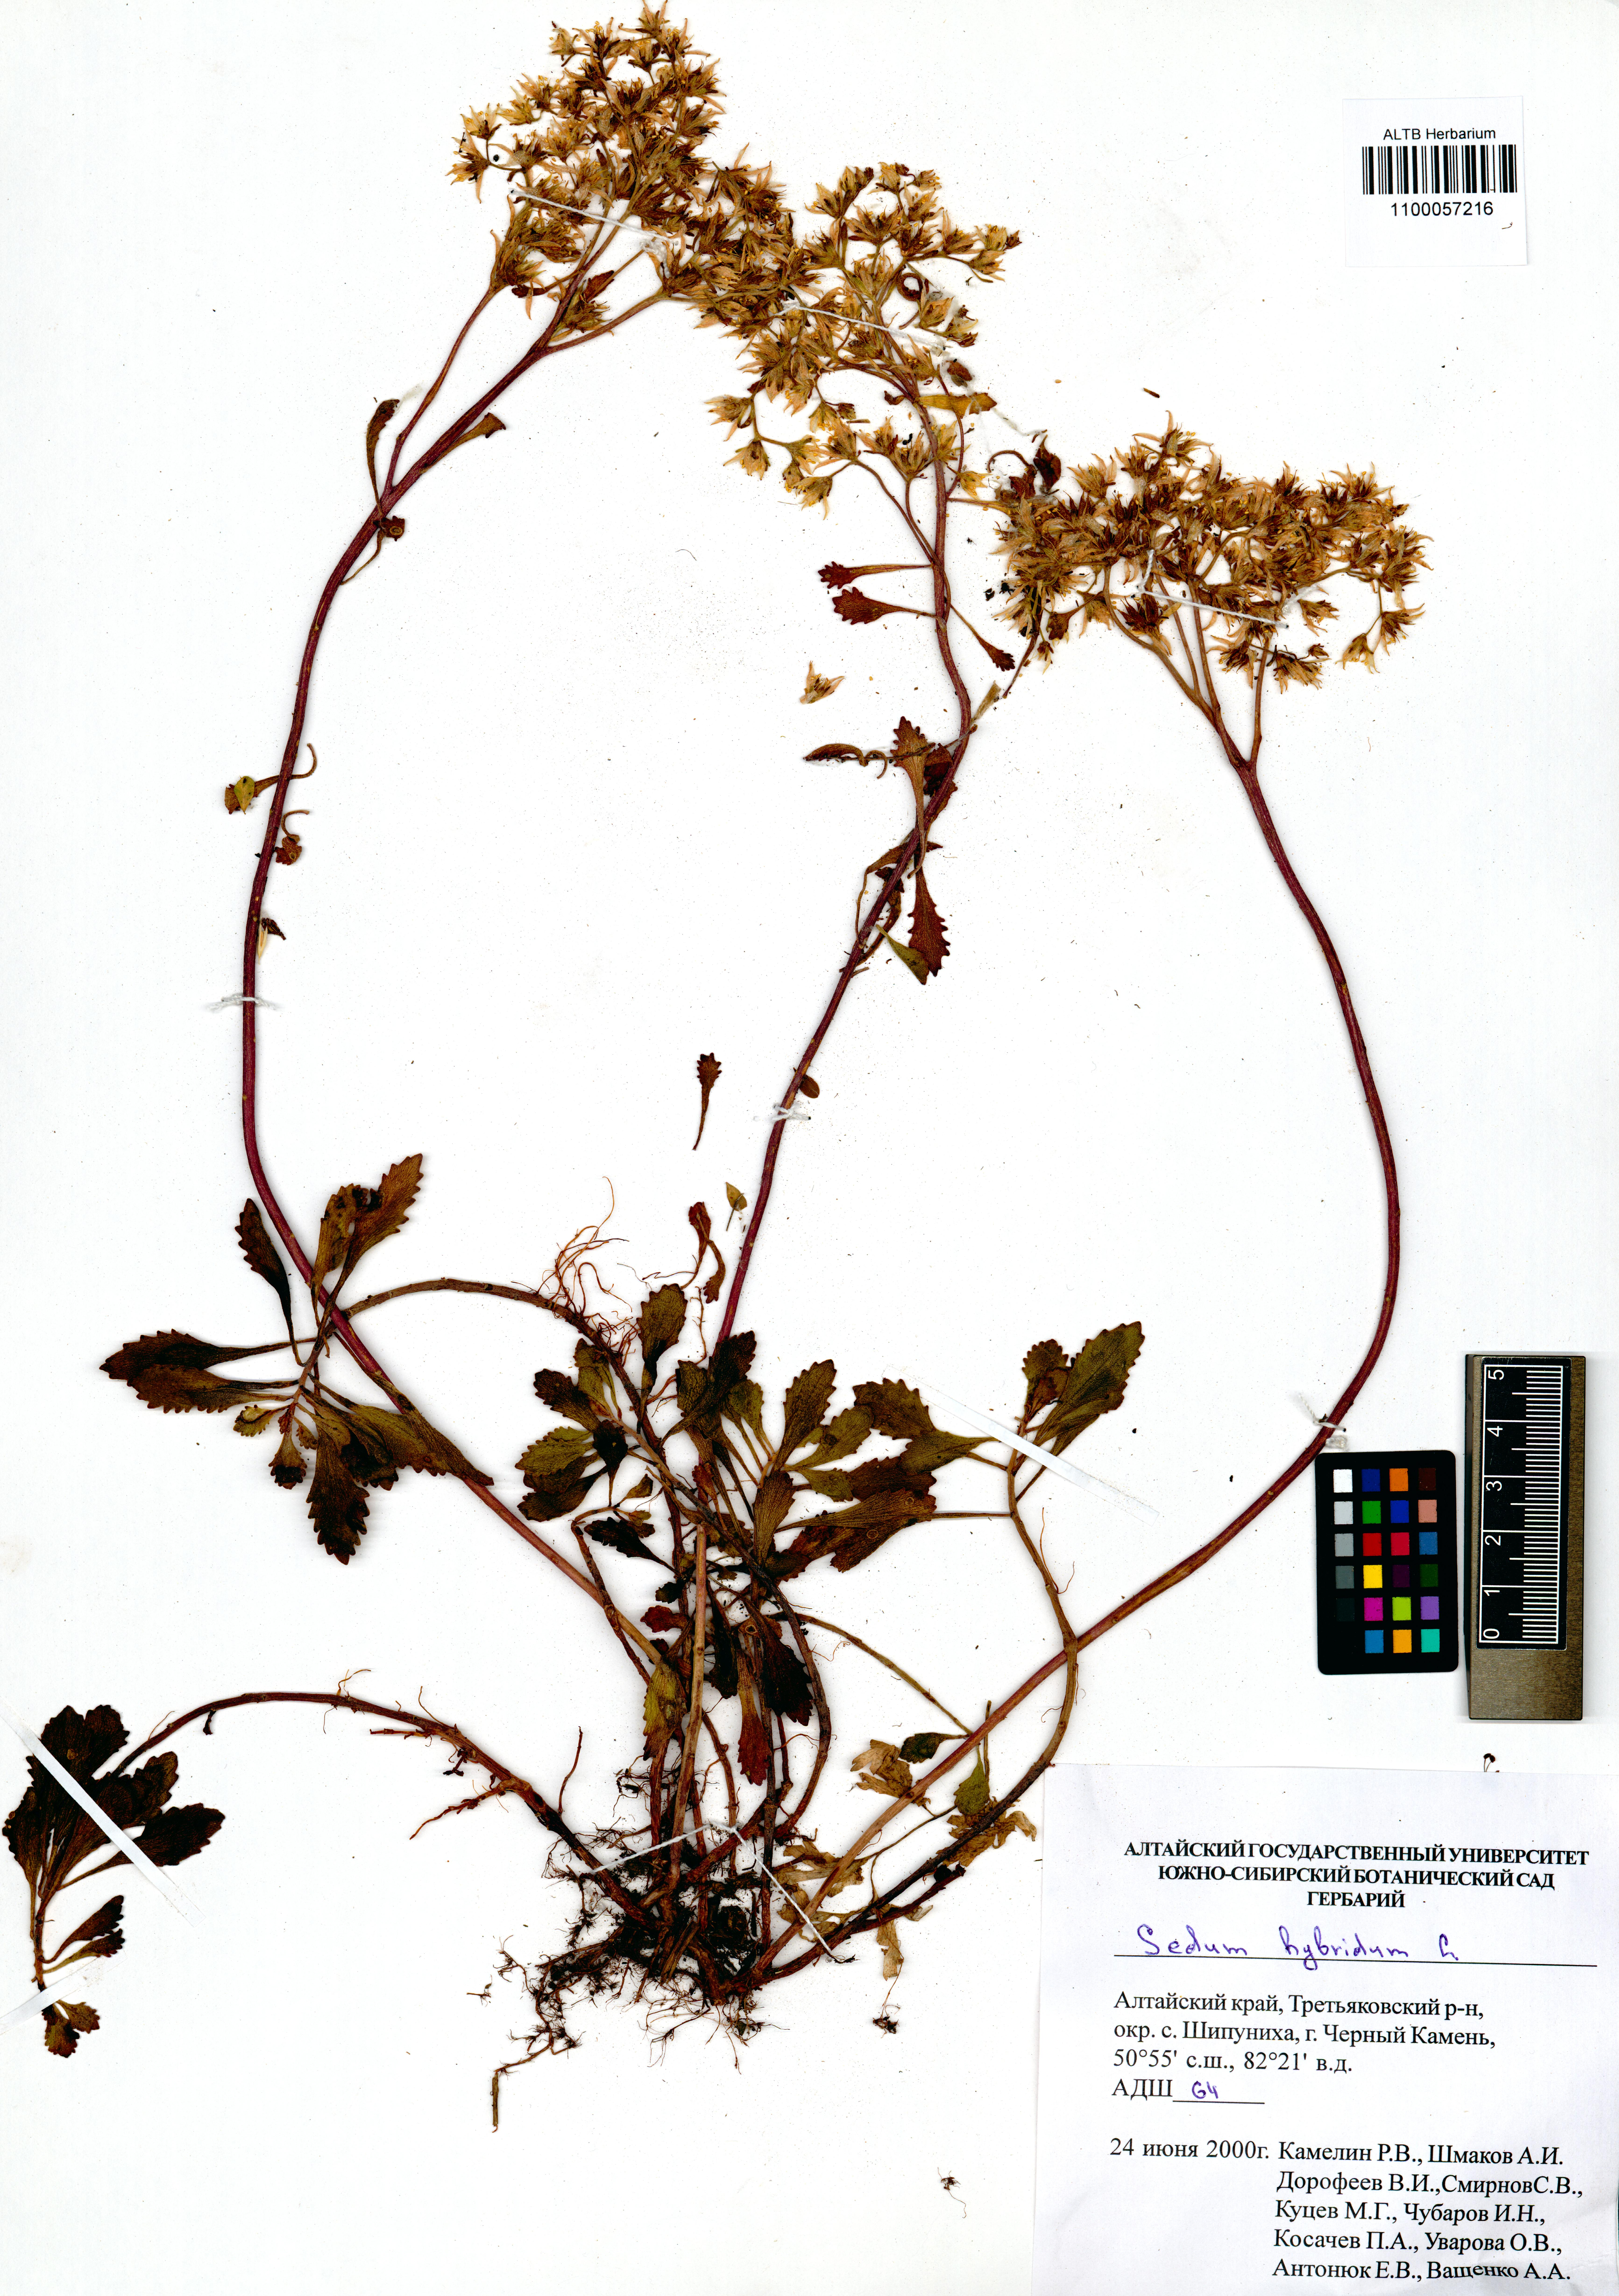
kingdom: Plantae
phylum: Tracheophyta
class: Magnoliopsida
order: Saxifragales
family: Crassulaceae
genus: Phedimus
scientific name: Phedimus hybridus
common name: Hybrid stonecrop
